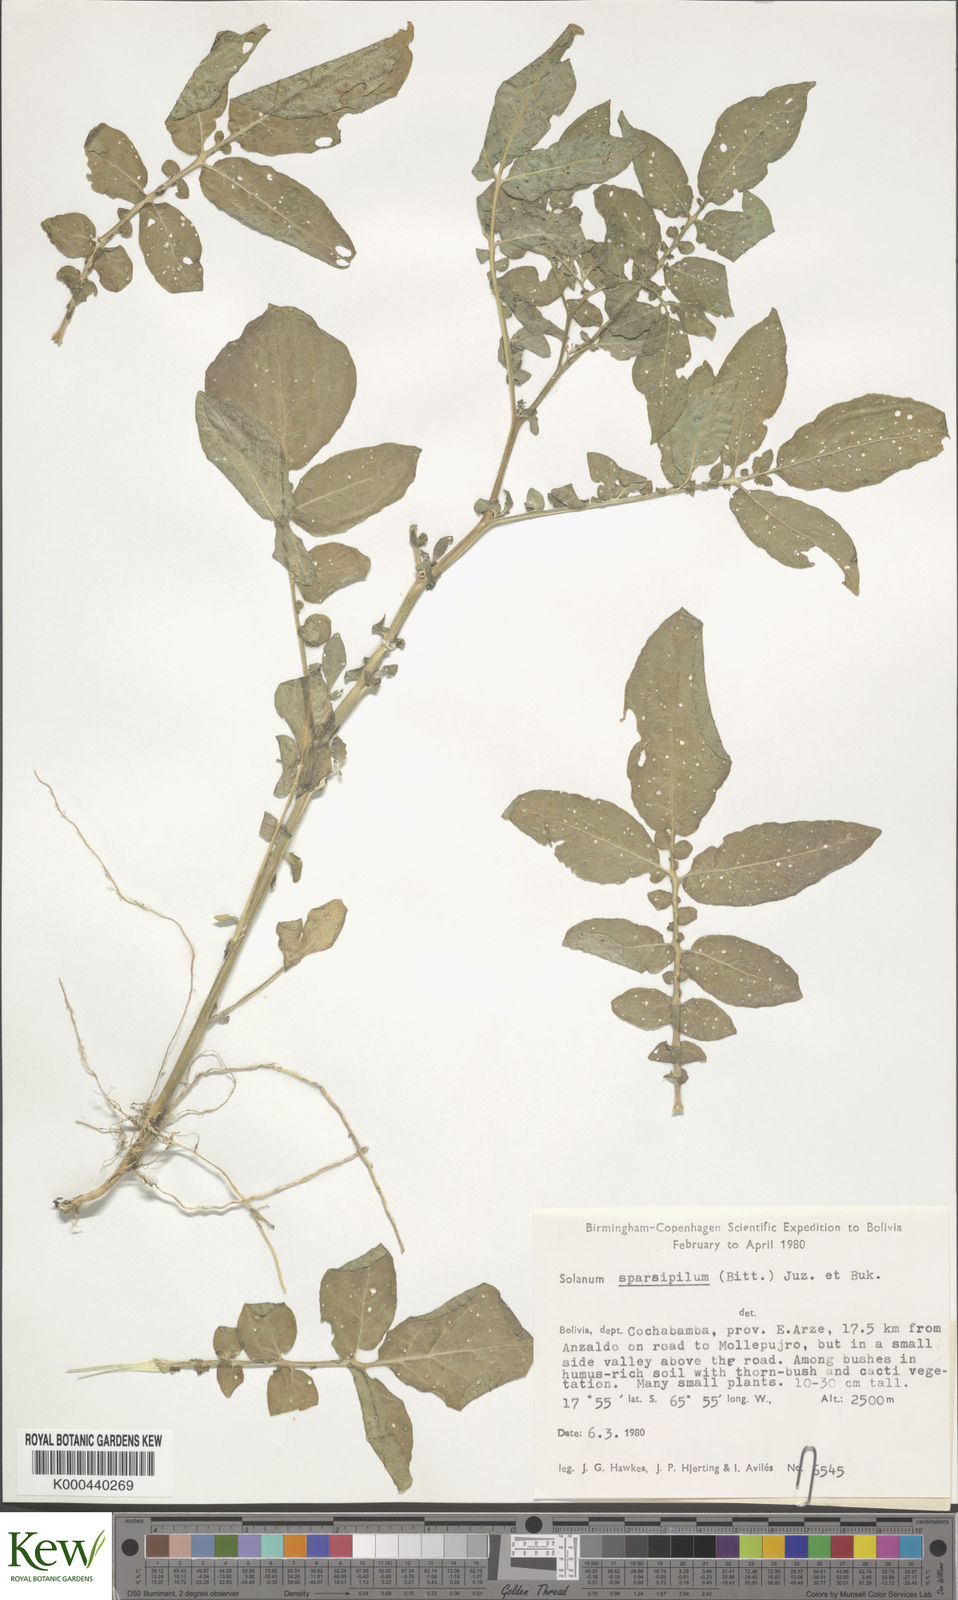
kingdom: Plantae
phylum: Tracheophyta
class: Magnoliopsida
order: Solanales
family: Solanaceae
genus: Solanum
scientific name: Solanum brevicaule
